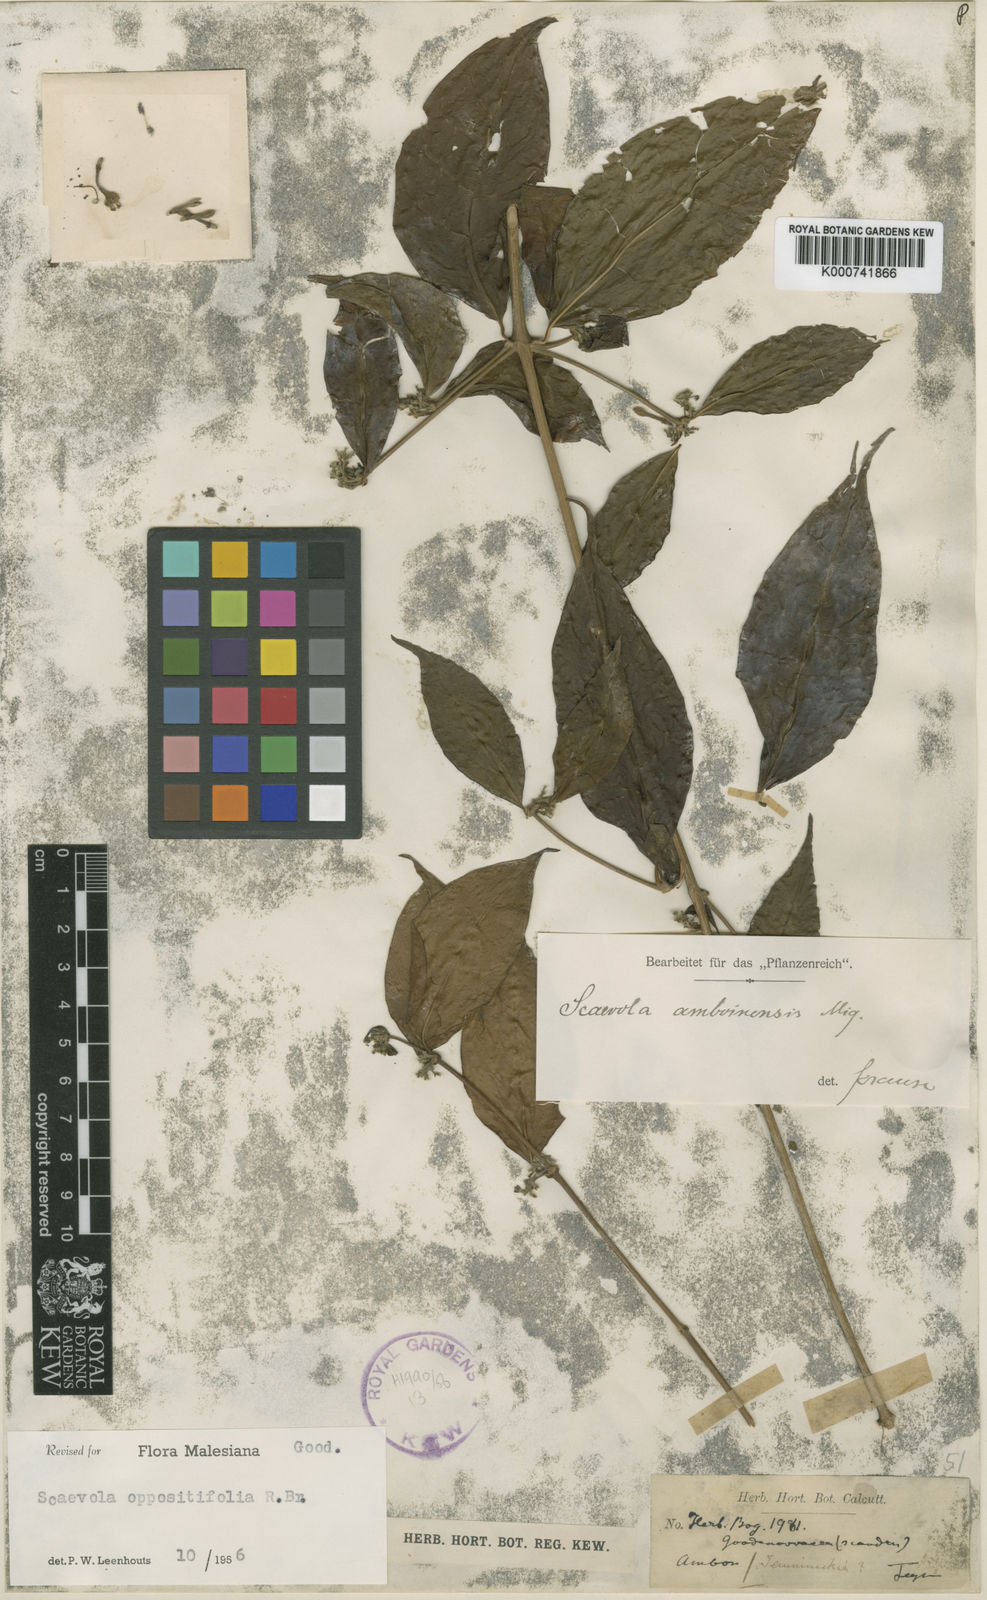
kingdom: Plantae
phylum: Tracheophyta
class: Magnoliopsida
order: Asterales
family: Goodeniaceae
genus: Scaevola
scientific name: Scaevola oppositifolia
